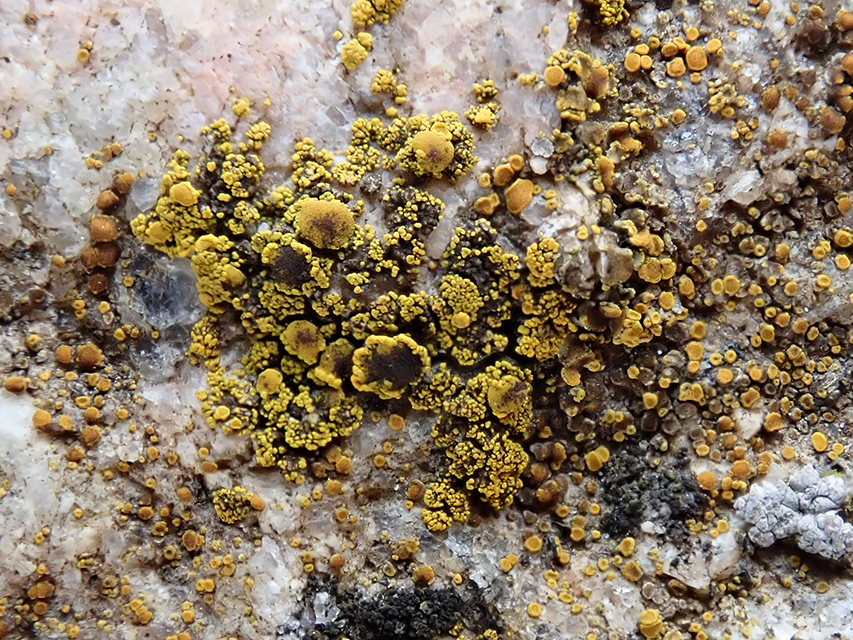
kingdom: Fungi
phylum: Ascomycota
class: Candelariomycetes
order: Candelariales
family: Candelariaceae
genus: Candelariella
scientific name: Candelariella vitellina
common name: almindelig æggeblommelav
